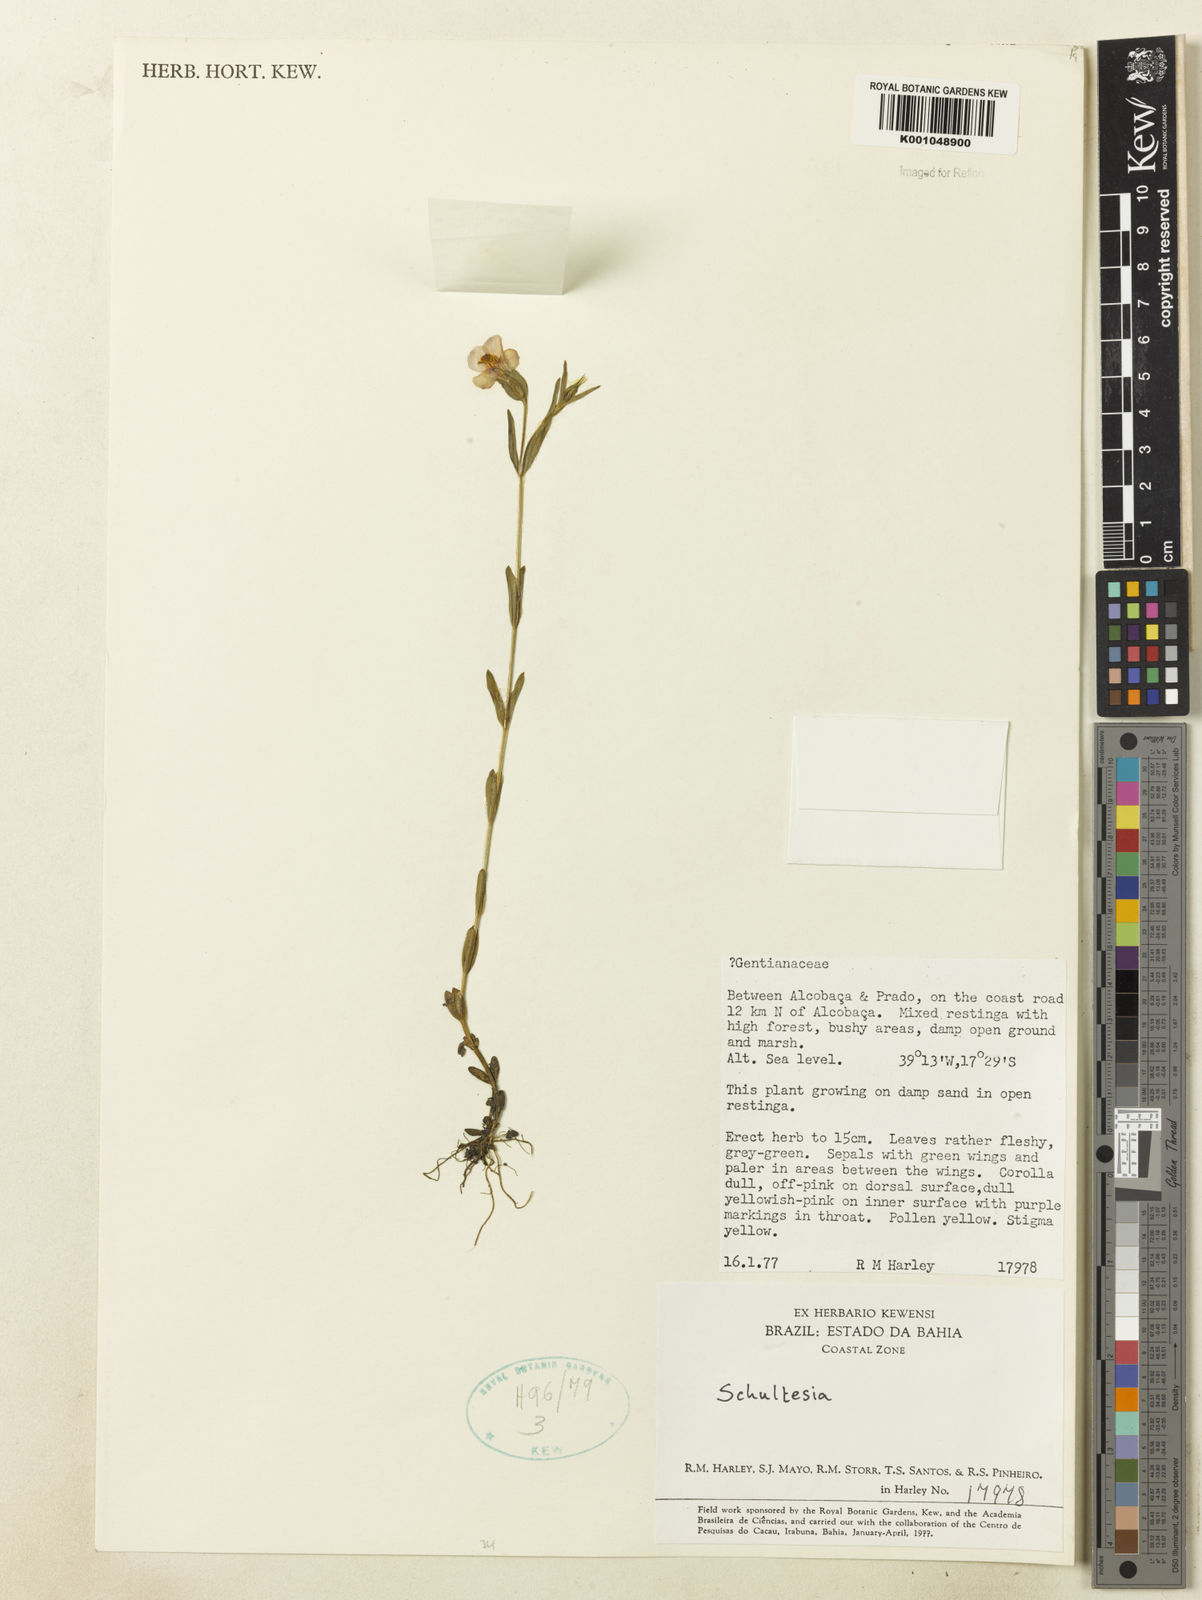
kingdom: Plantae
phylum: Tracheophyta
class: Magnoliopsida
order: Gentianales
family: Gentianaceae
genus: Schultesia
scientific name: Schultesia
